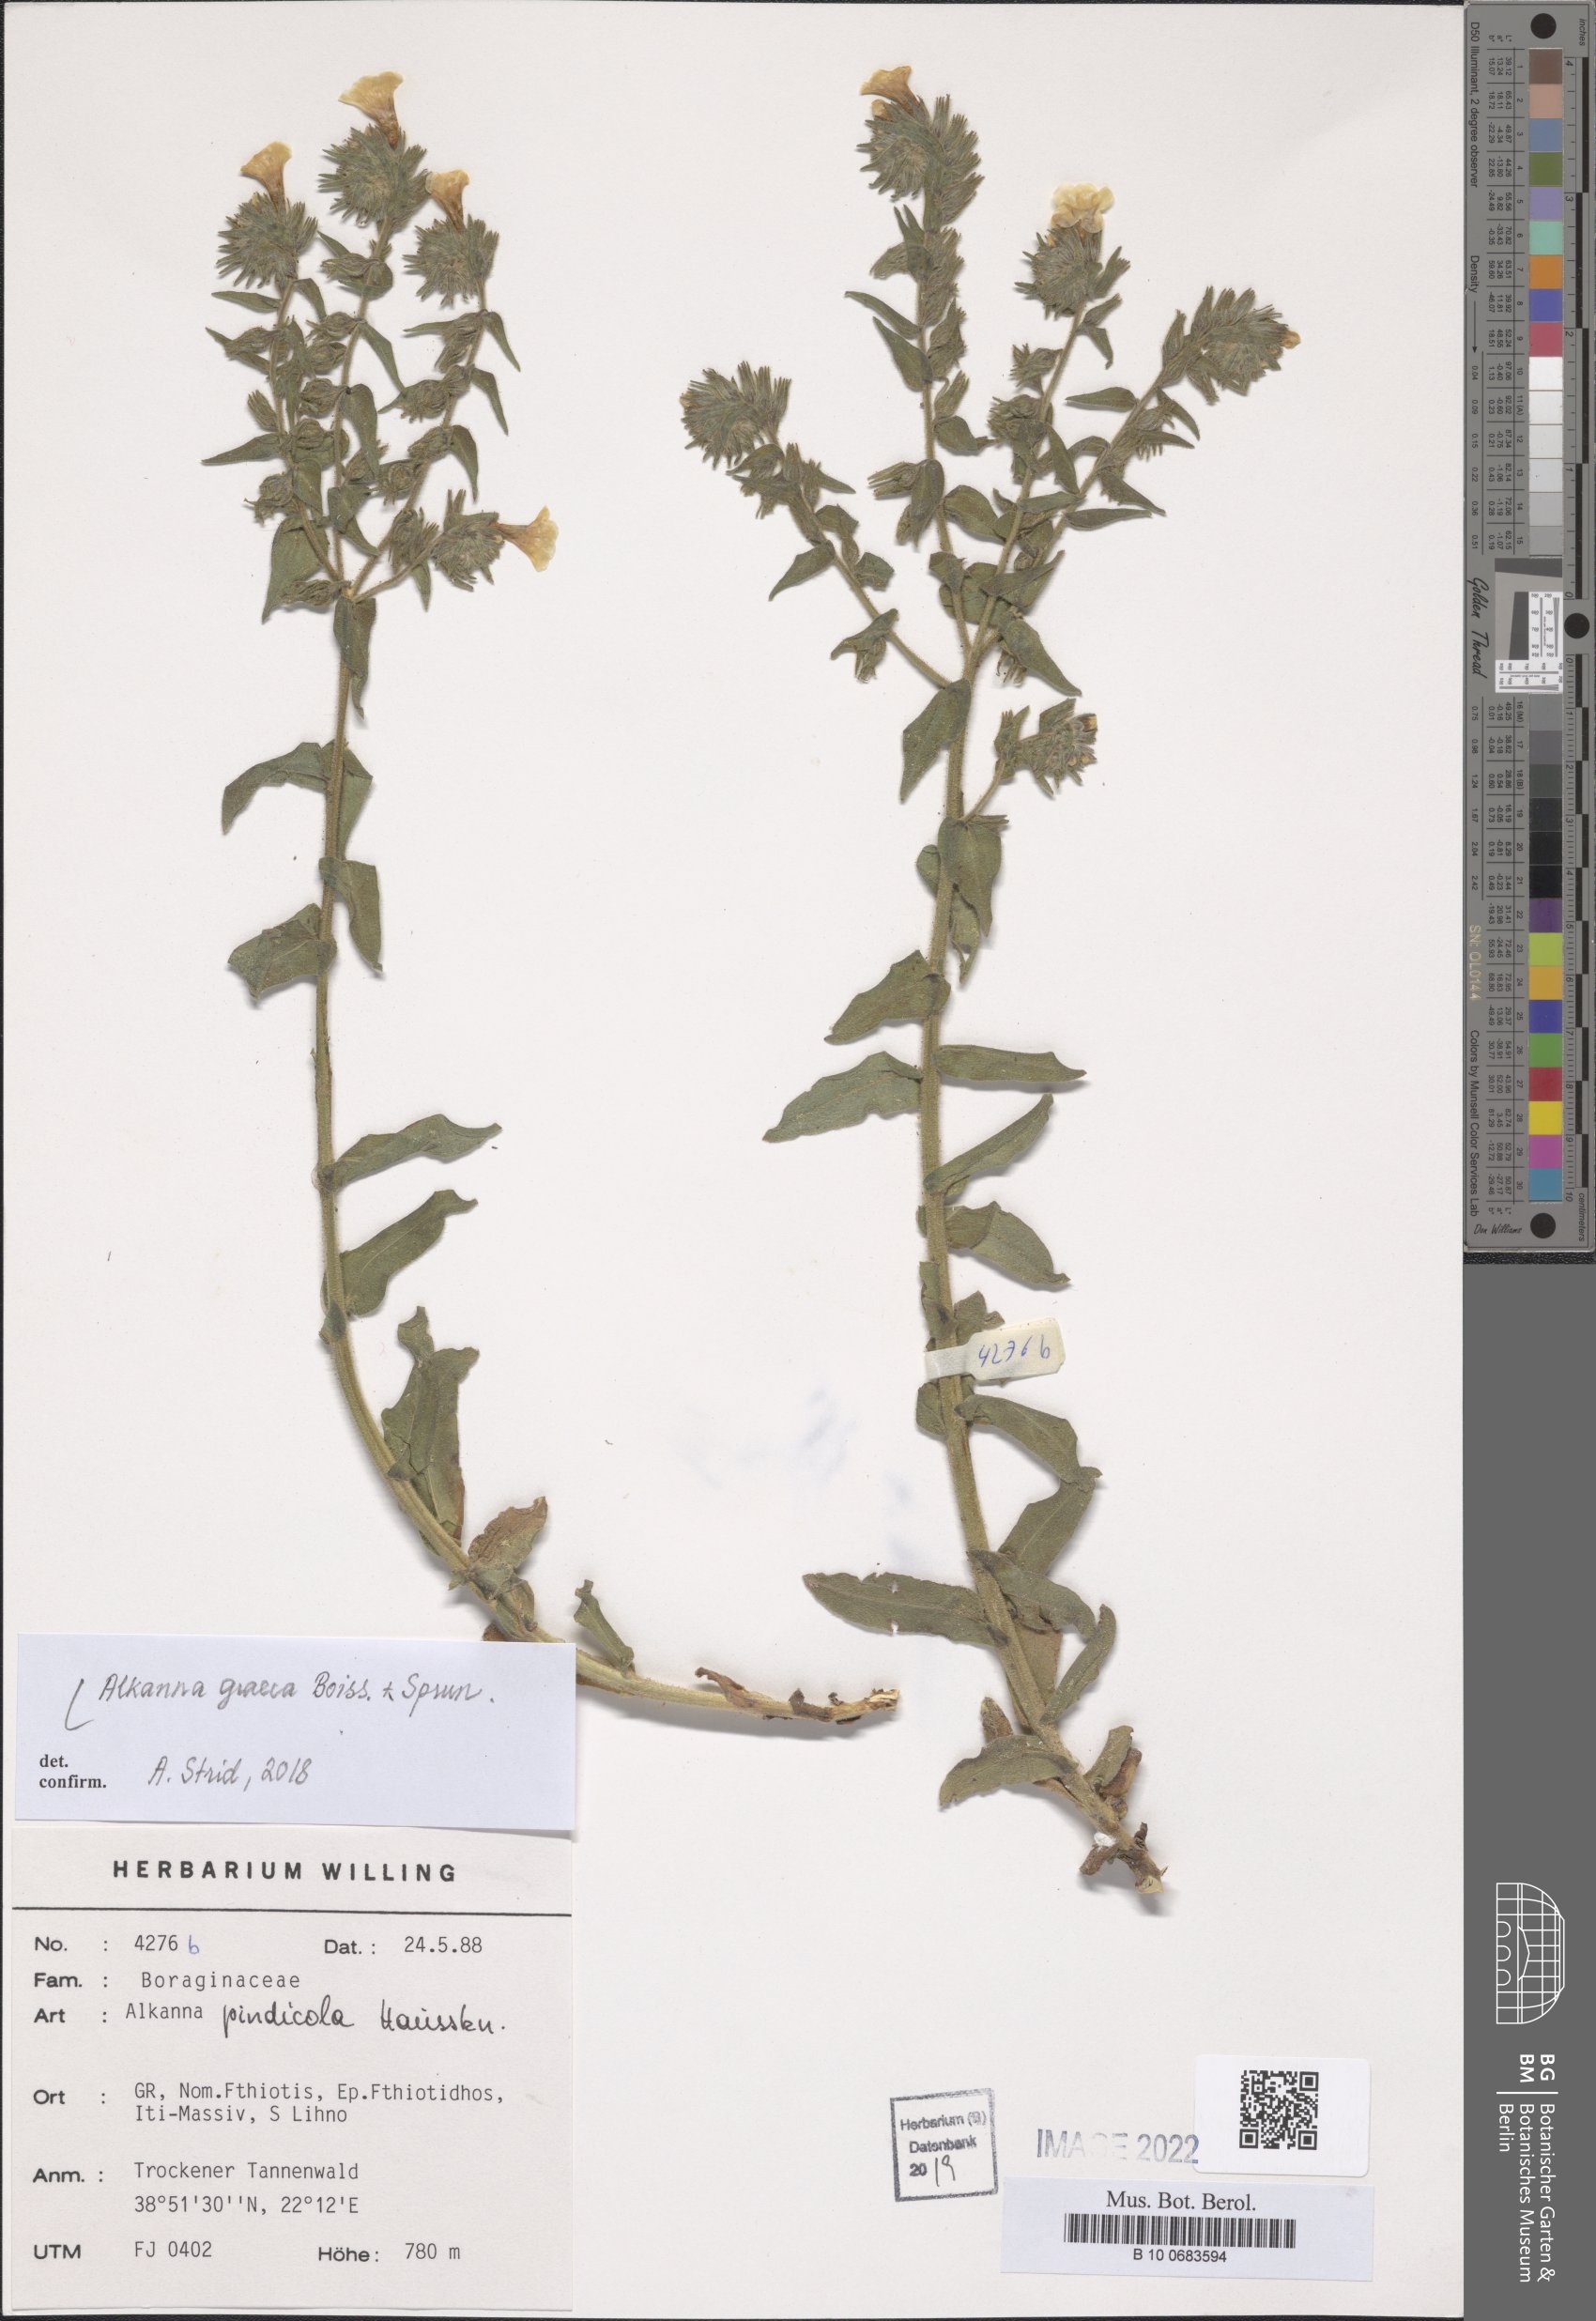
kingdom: Plantae
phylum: Tracheophyta
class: Magnoliopsida
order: Boraginales
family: Boraginaceae
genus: Alkanna
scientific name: Alkanna graeca
